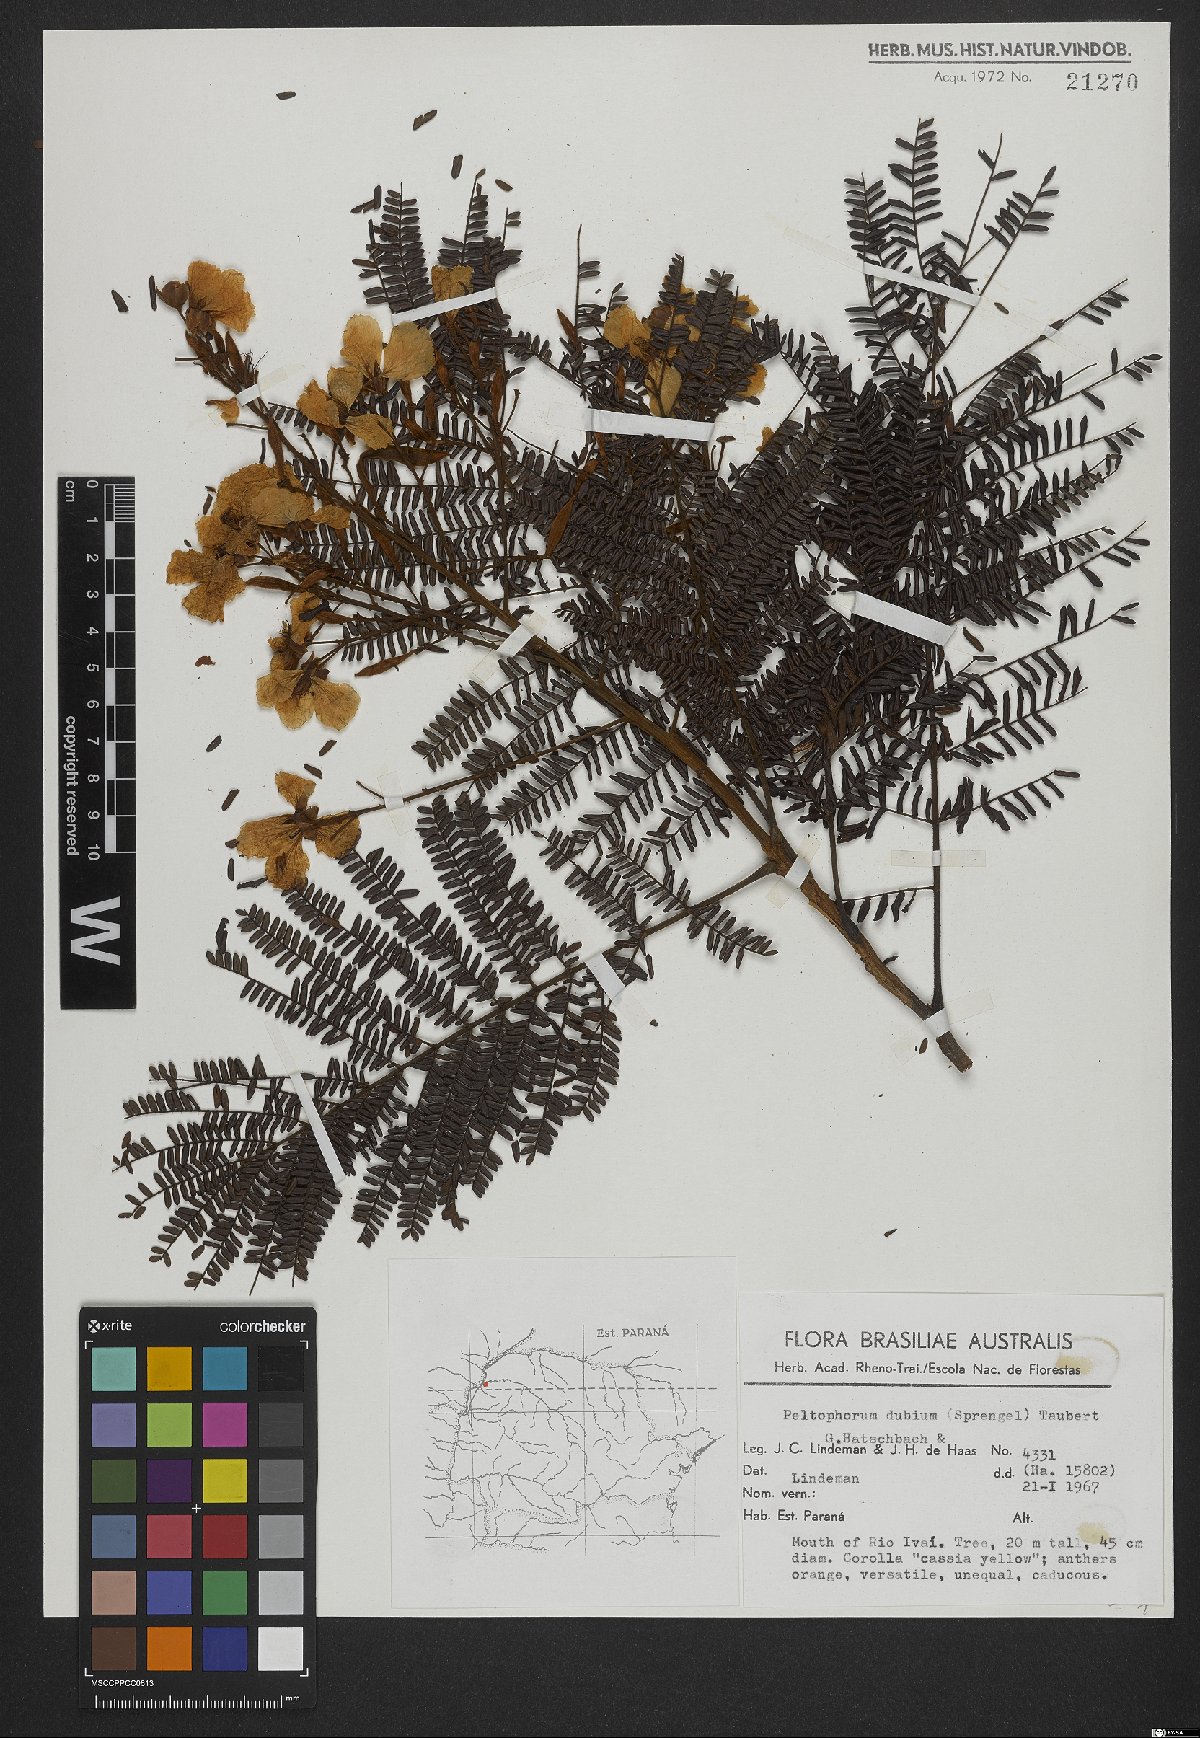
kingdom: Plantae
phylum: Tracheophyta
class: Magnoliopsida
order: Fabales
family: Fabaceae
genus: Peltophorum
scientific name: Peltophorum dubium
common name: Horsebush
